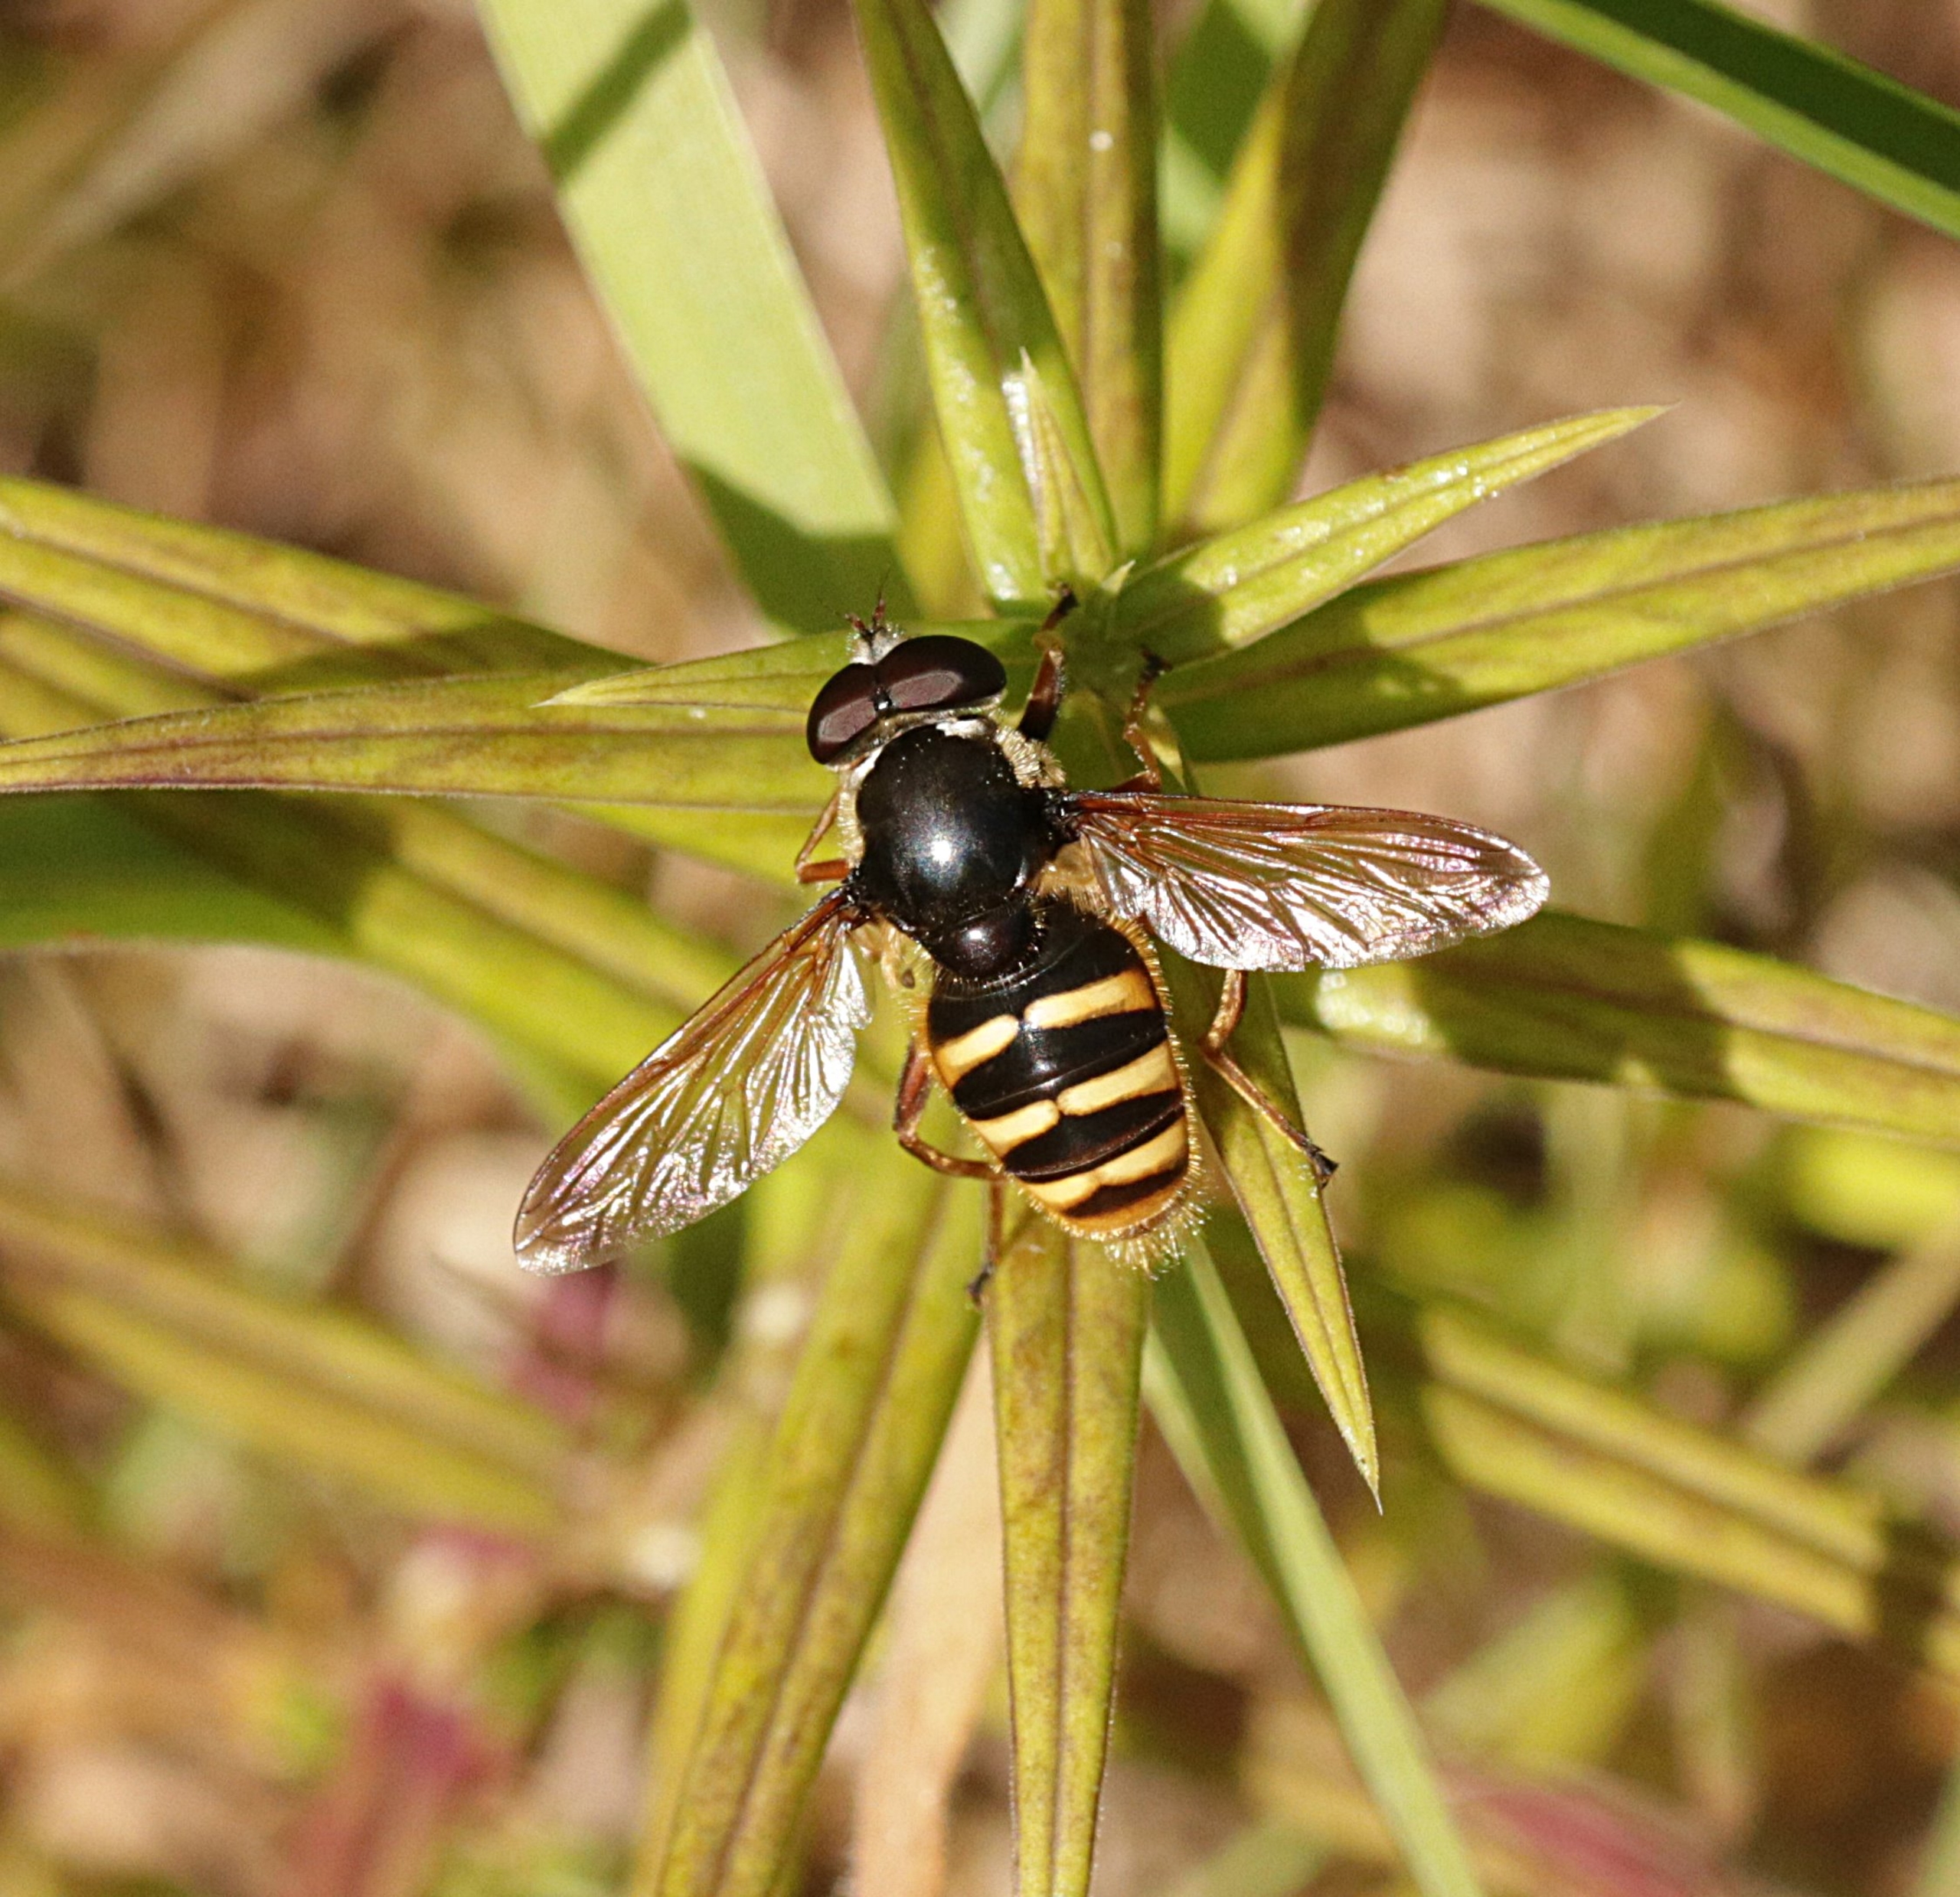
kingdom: Animalia
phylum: Arthropoda
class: Insecta
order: Diptera
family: Syrphidae
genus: Sericomyia
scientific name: Sericomyia silentis
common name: Tørve-silkesvirreflue
